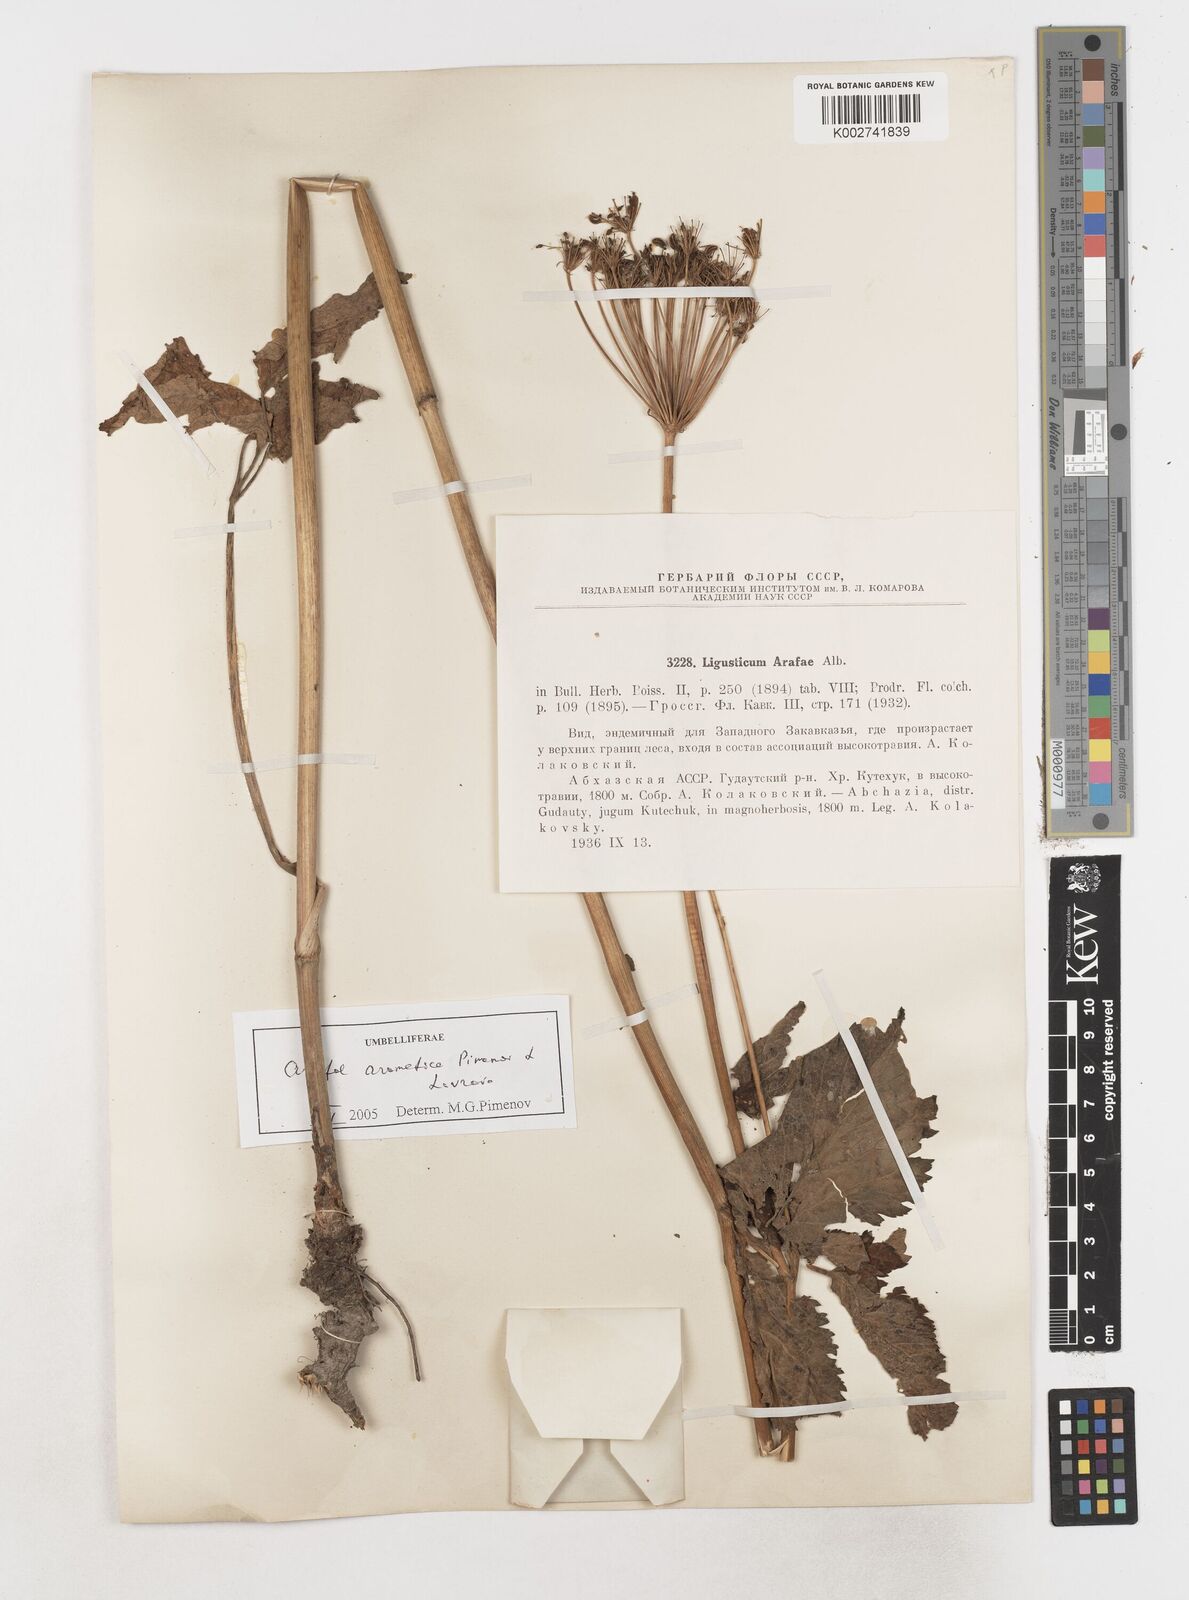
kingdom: Plantae
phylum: Tracheophyta
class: Magnoliopsida
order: Apiales
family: Apiaceae
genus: Arafoe
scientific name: Arafoe aromatica
